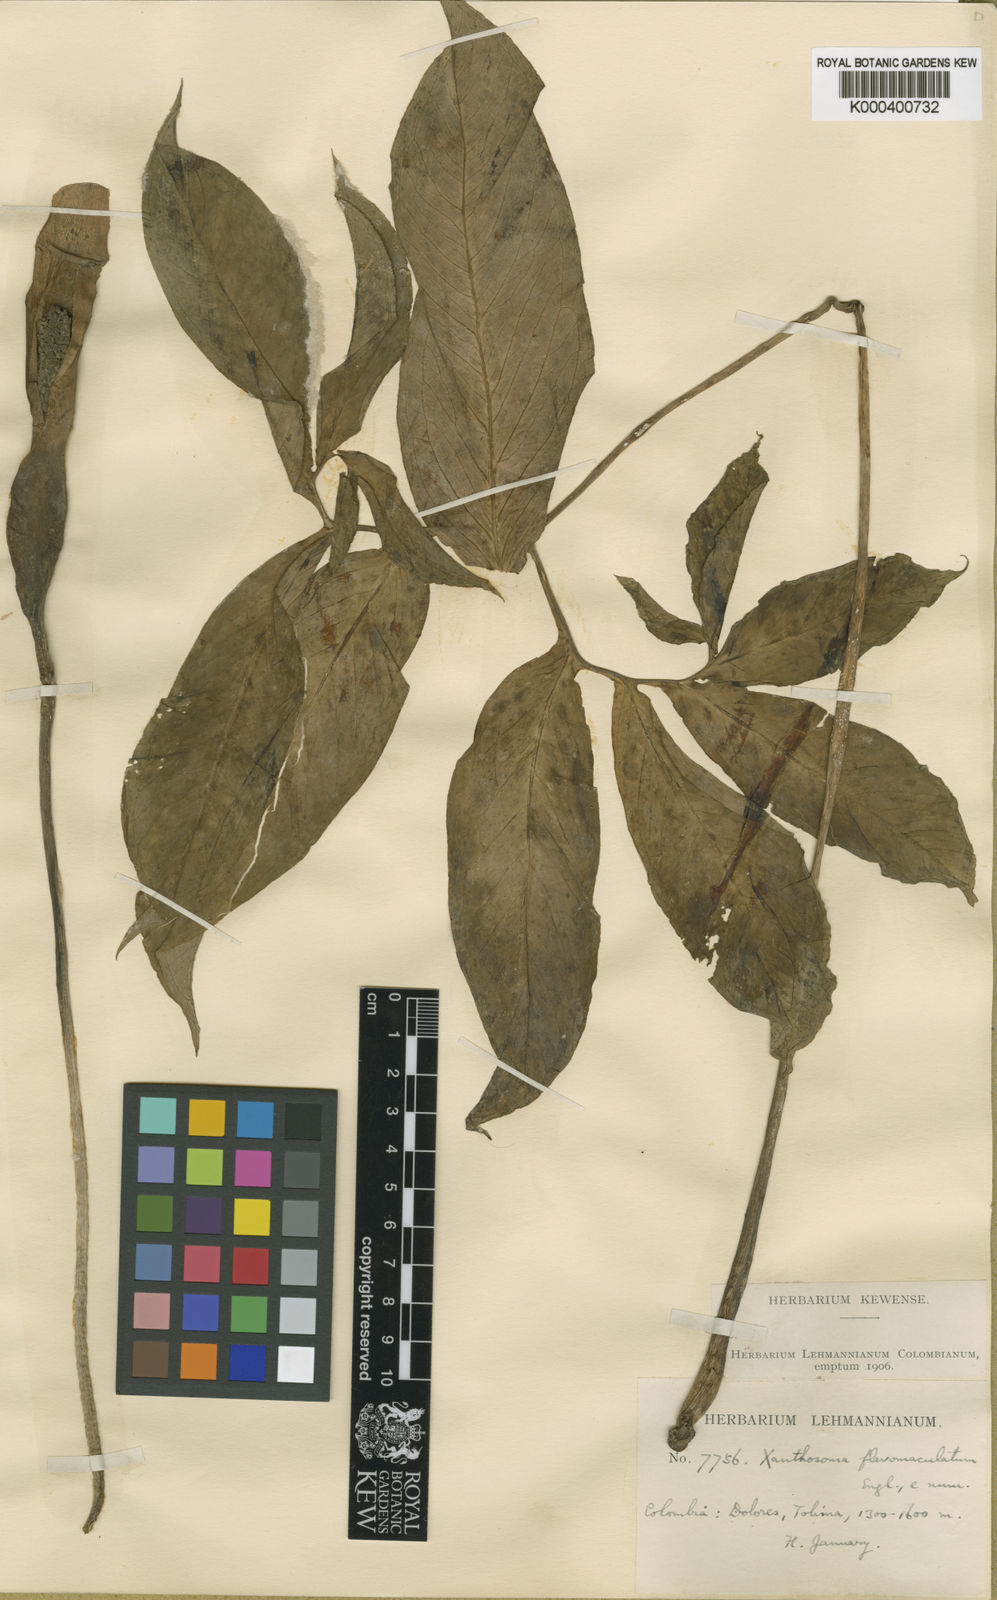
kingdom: Plantae
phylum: Tracheophyta
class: Liliopsida
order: Alismatales
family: Araceae
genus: Xanthosoma
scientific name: Xanthosoma flavomaculatum
